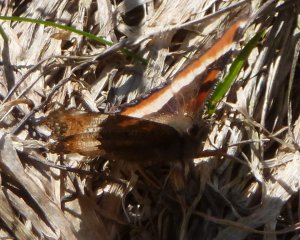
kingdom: Animalia
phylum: Arthropoda
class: Insecta
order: Lepidoptera
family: Nymphalidae
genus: Aglais
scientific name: Aglais milberti
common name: Milbert's Tortoiseshell
